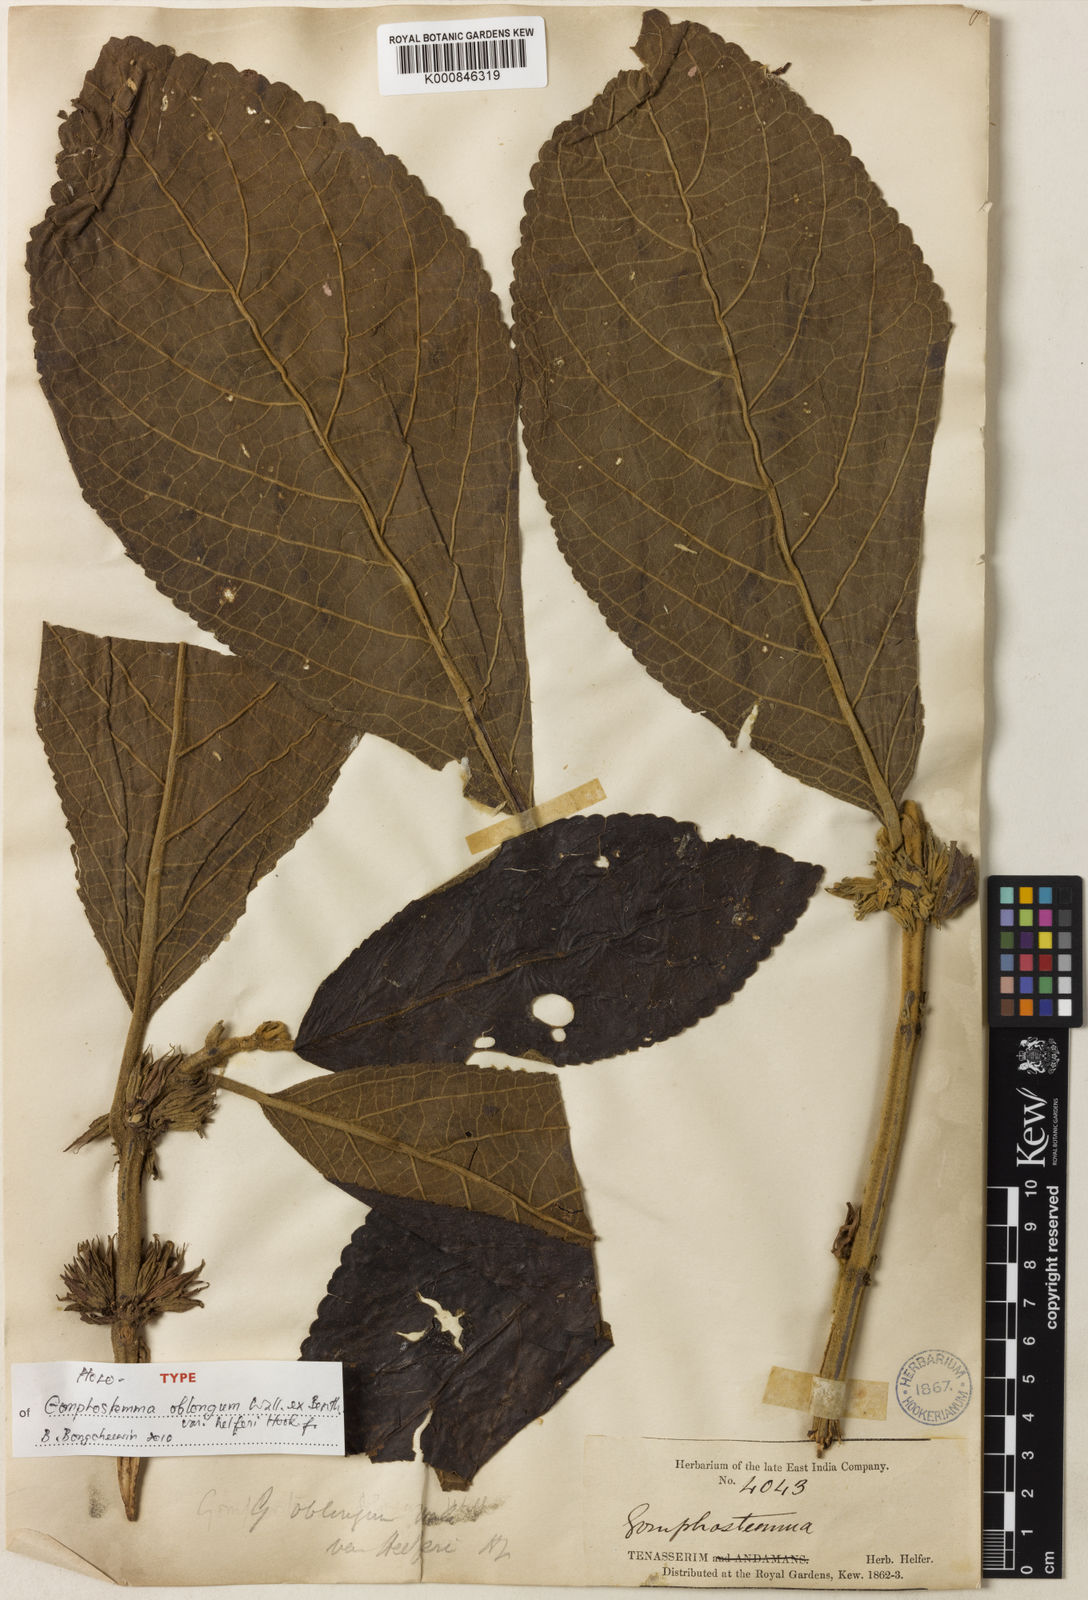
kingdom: Plantae
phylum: Tracheophyta
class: Magnoliopsida
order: Lamiales
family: Lamiaceae
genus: Gomphostemma
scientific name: Gomphostemma
